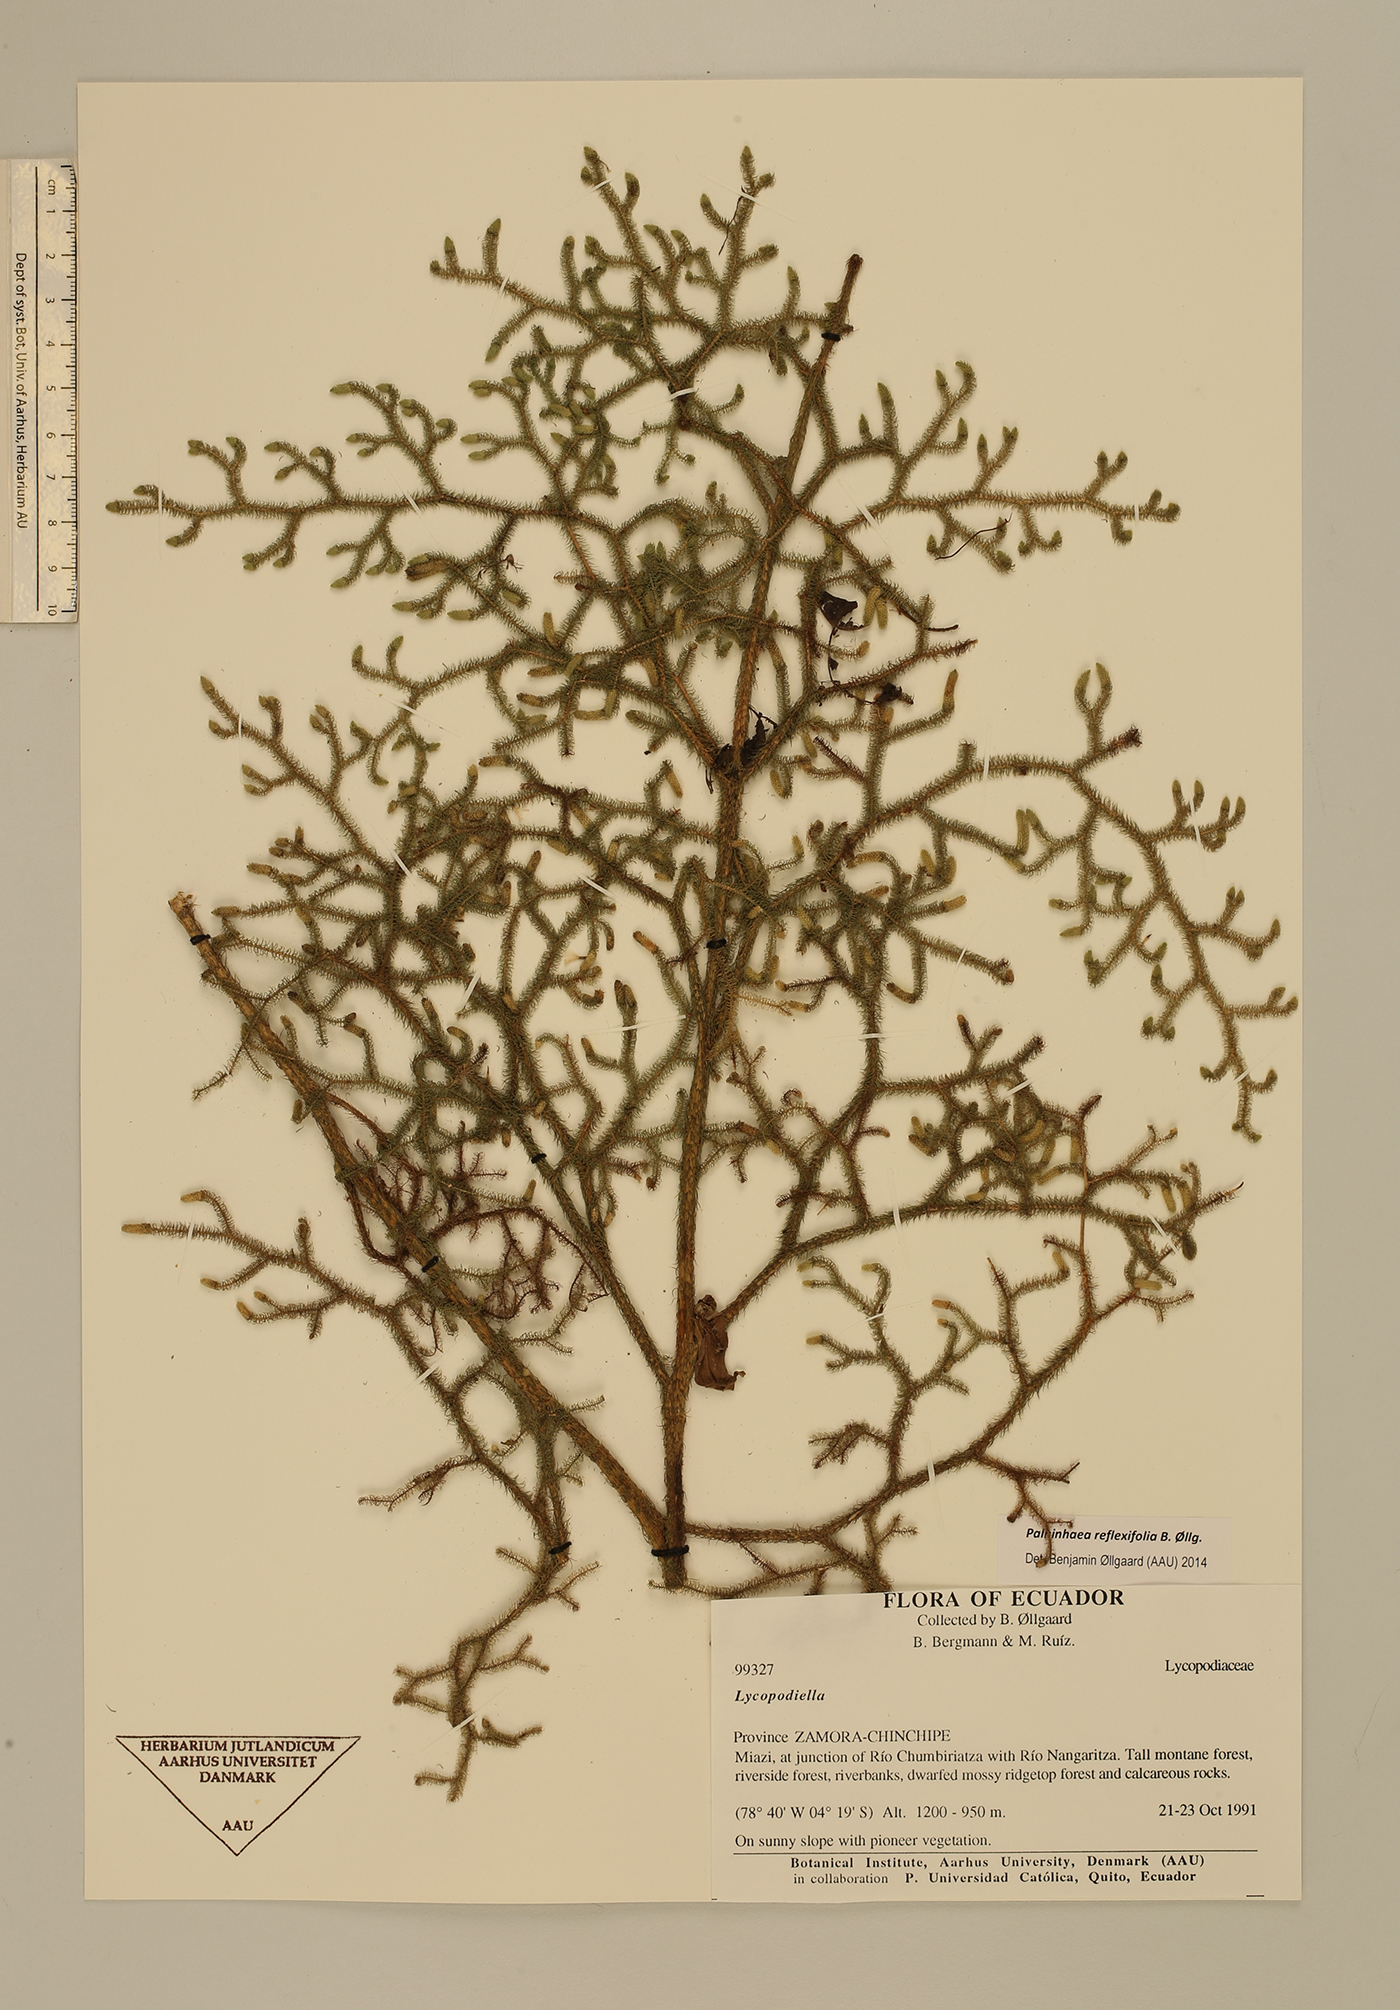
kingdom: Plantae
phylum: Tracheophyta
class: Lycopodiopsida
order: Lycopodiales
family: Lycopodiaceae
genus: Palhinhaea
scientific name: Palhinhaea reflexifolia
